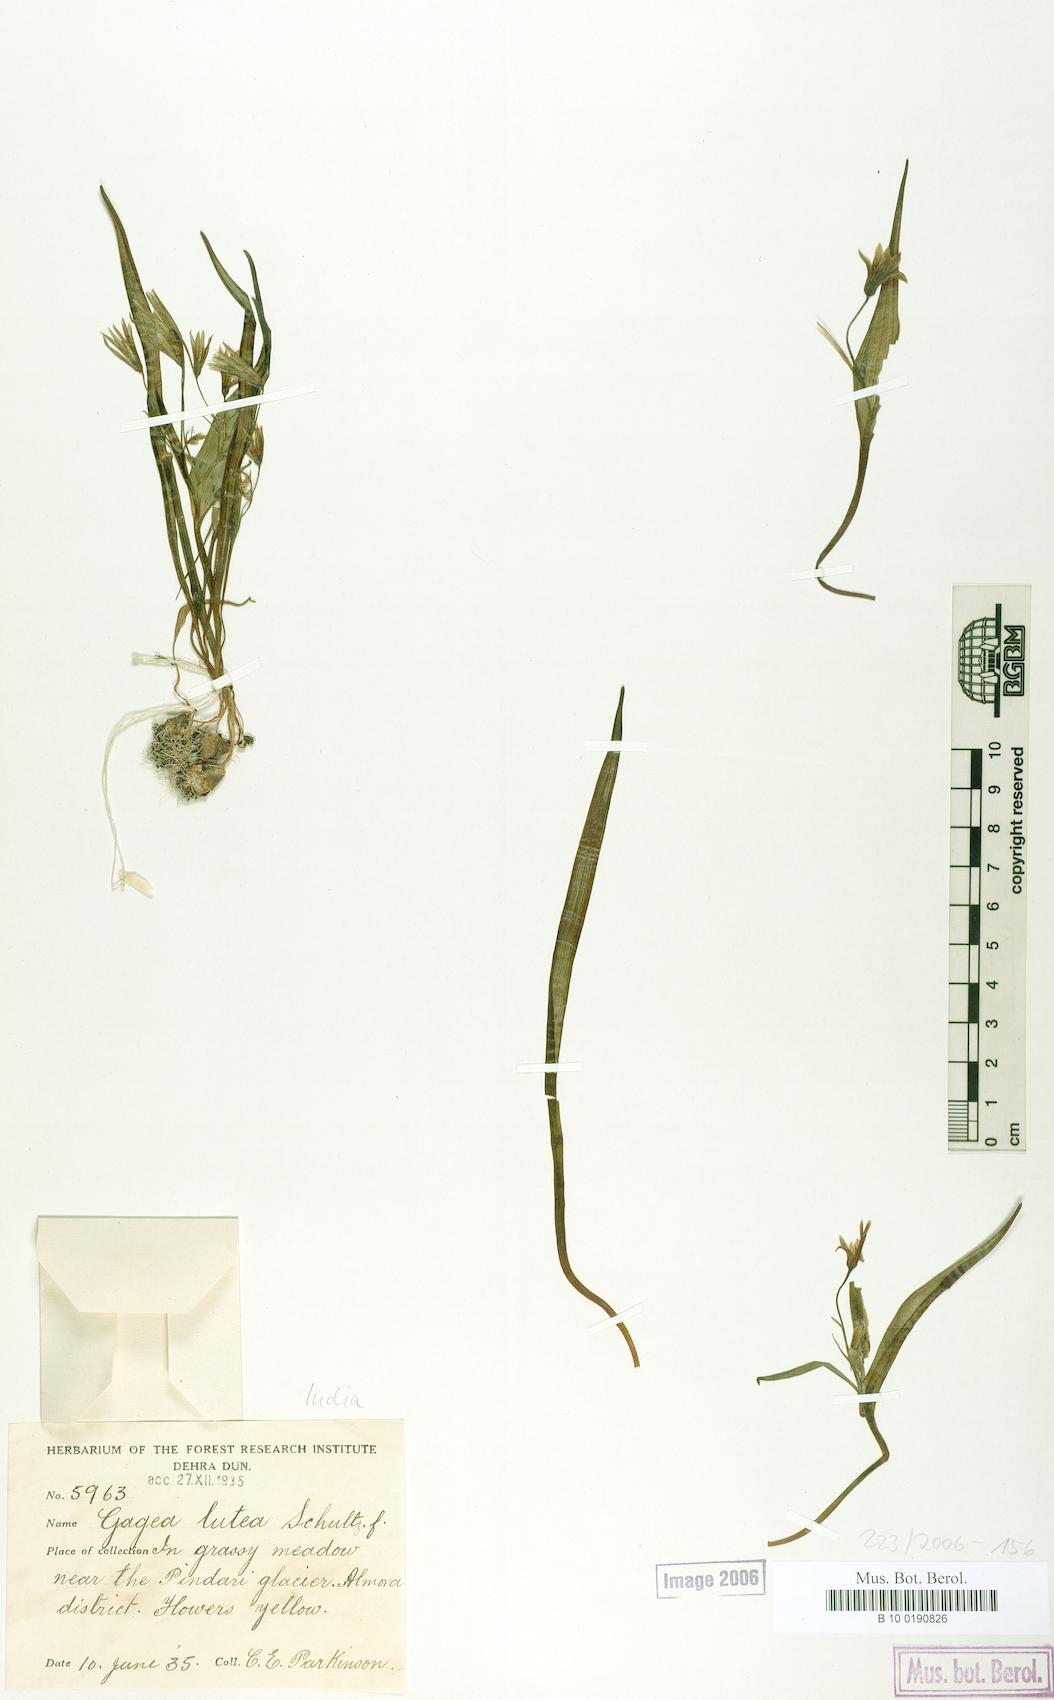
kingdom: Plantae
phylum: Tracheophyta
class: Liliopsida
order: Liliales
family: Liliaceae
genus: Gagea
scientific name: Gagea lutea
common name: Yellow star-of-bethlehem
